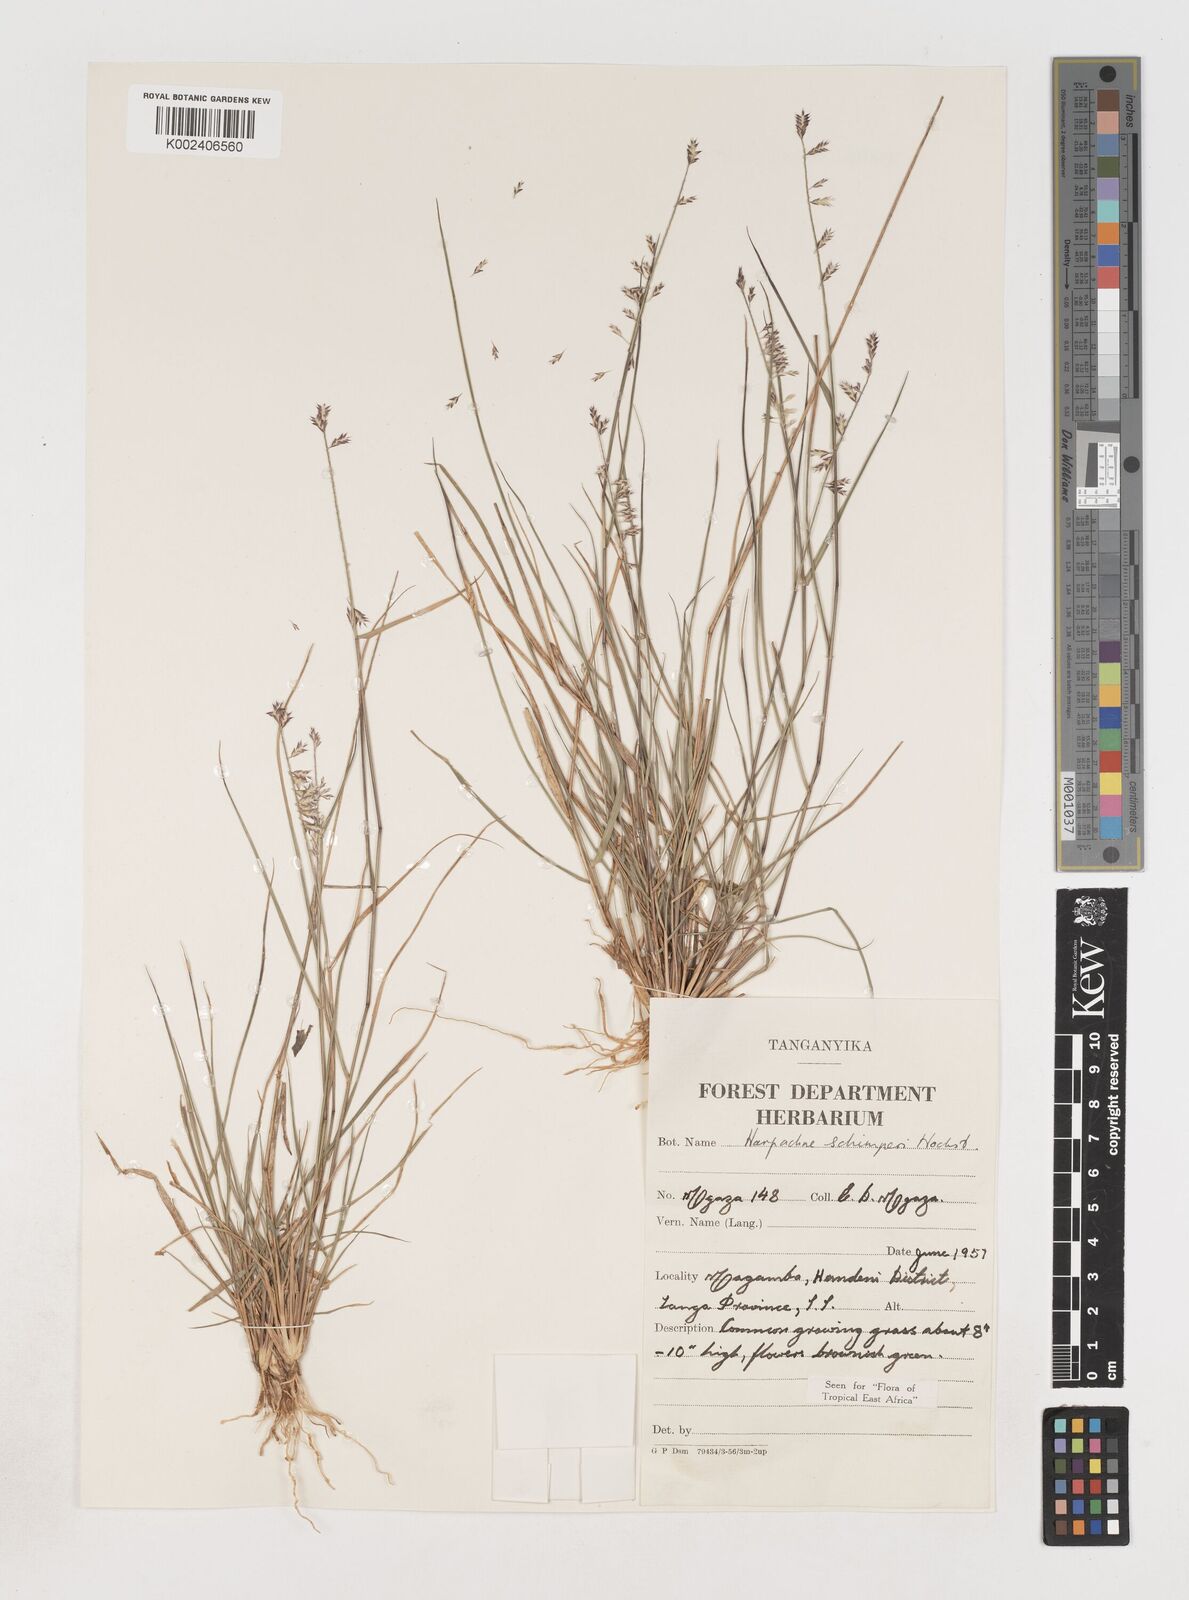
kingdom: Plantae
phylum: Tracheophyta
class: Liliopsida
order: Poales
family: Poaceae
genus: Harpachne
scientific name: Harpachne schimperi
